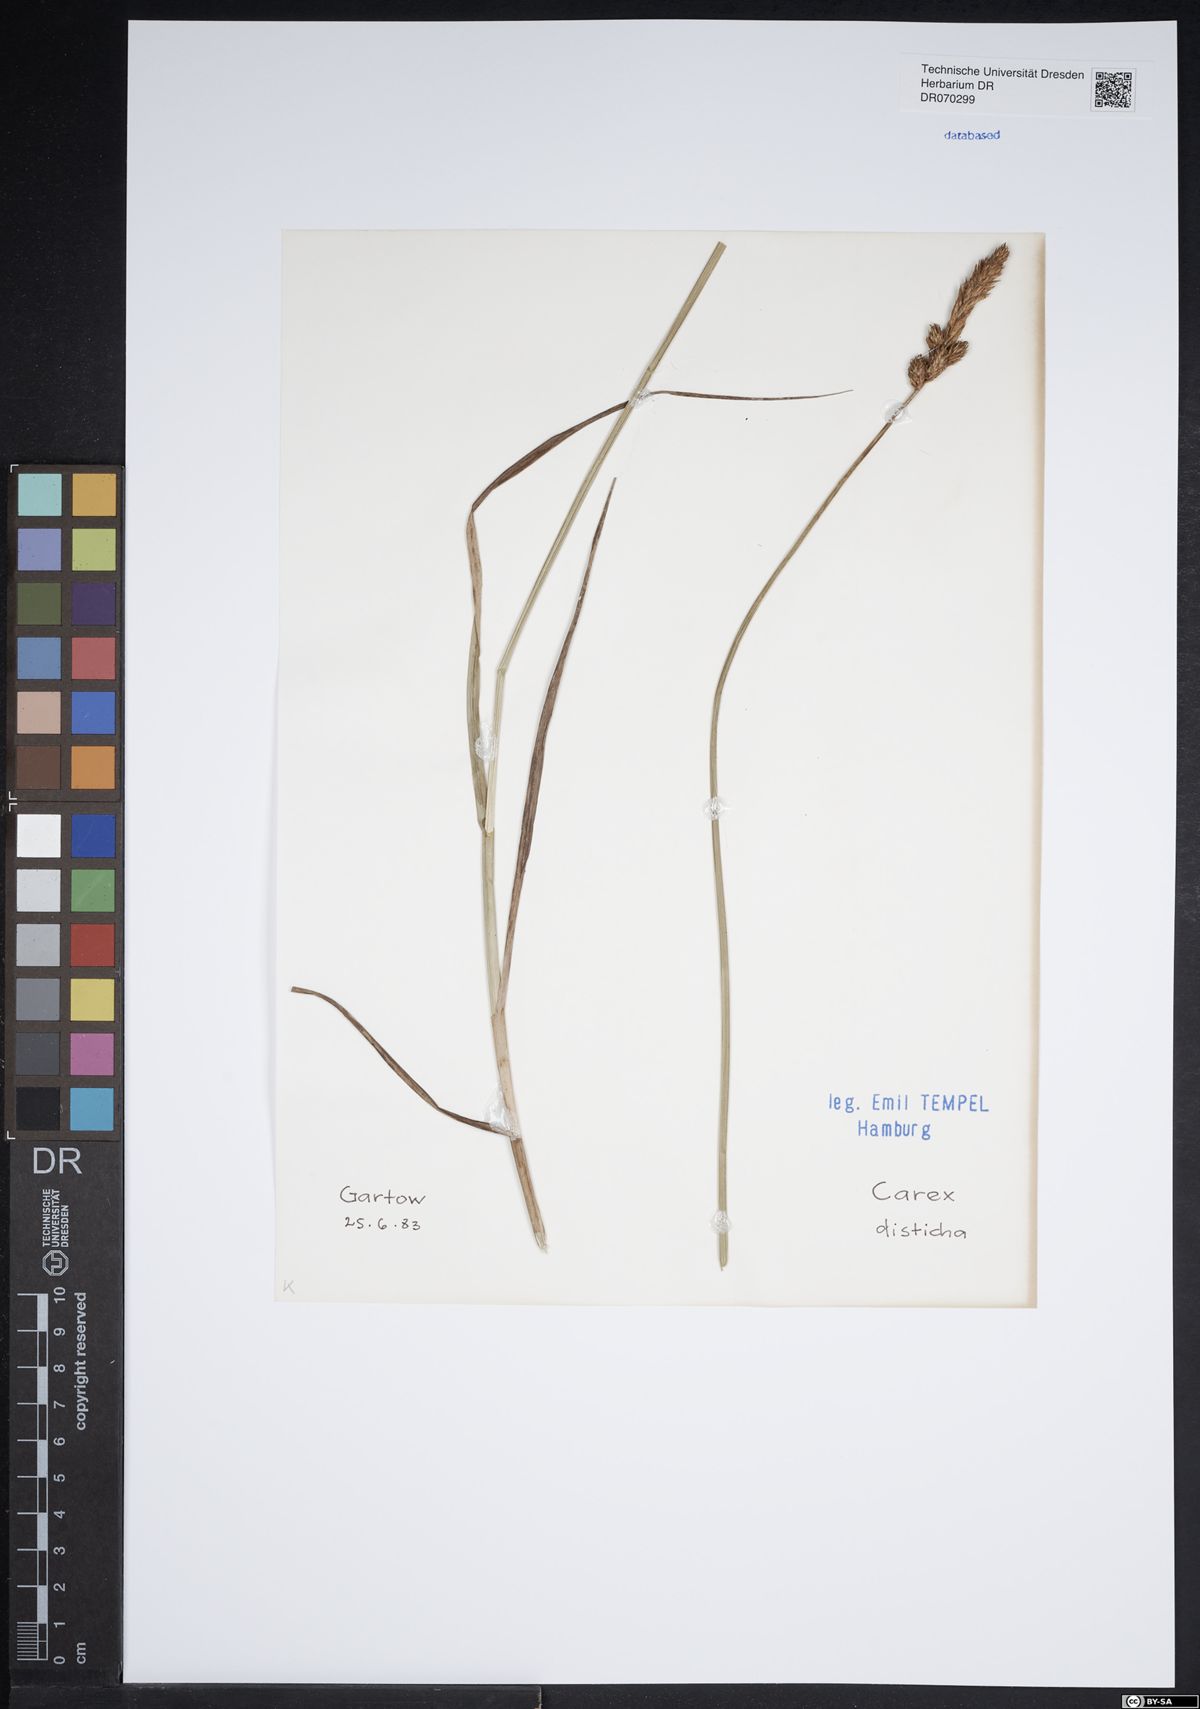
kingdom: Plantae
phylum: Tracheophyta
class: Liliopsida
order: Poales
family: Cyperaceae
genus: Carex
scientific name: Carex disticha
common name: Brown sedge
